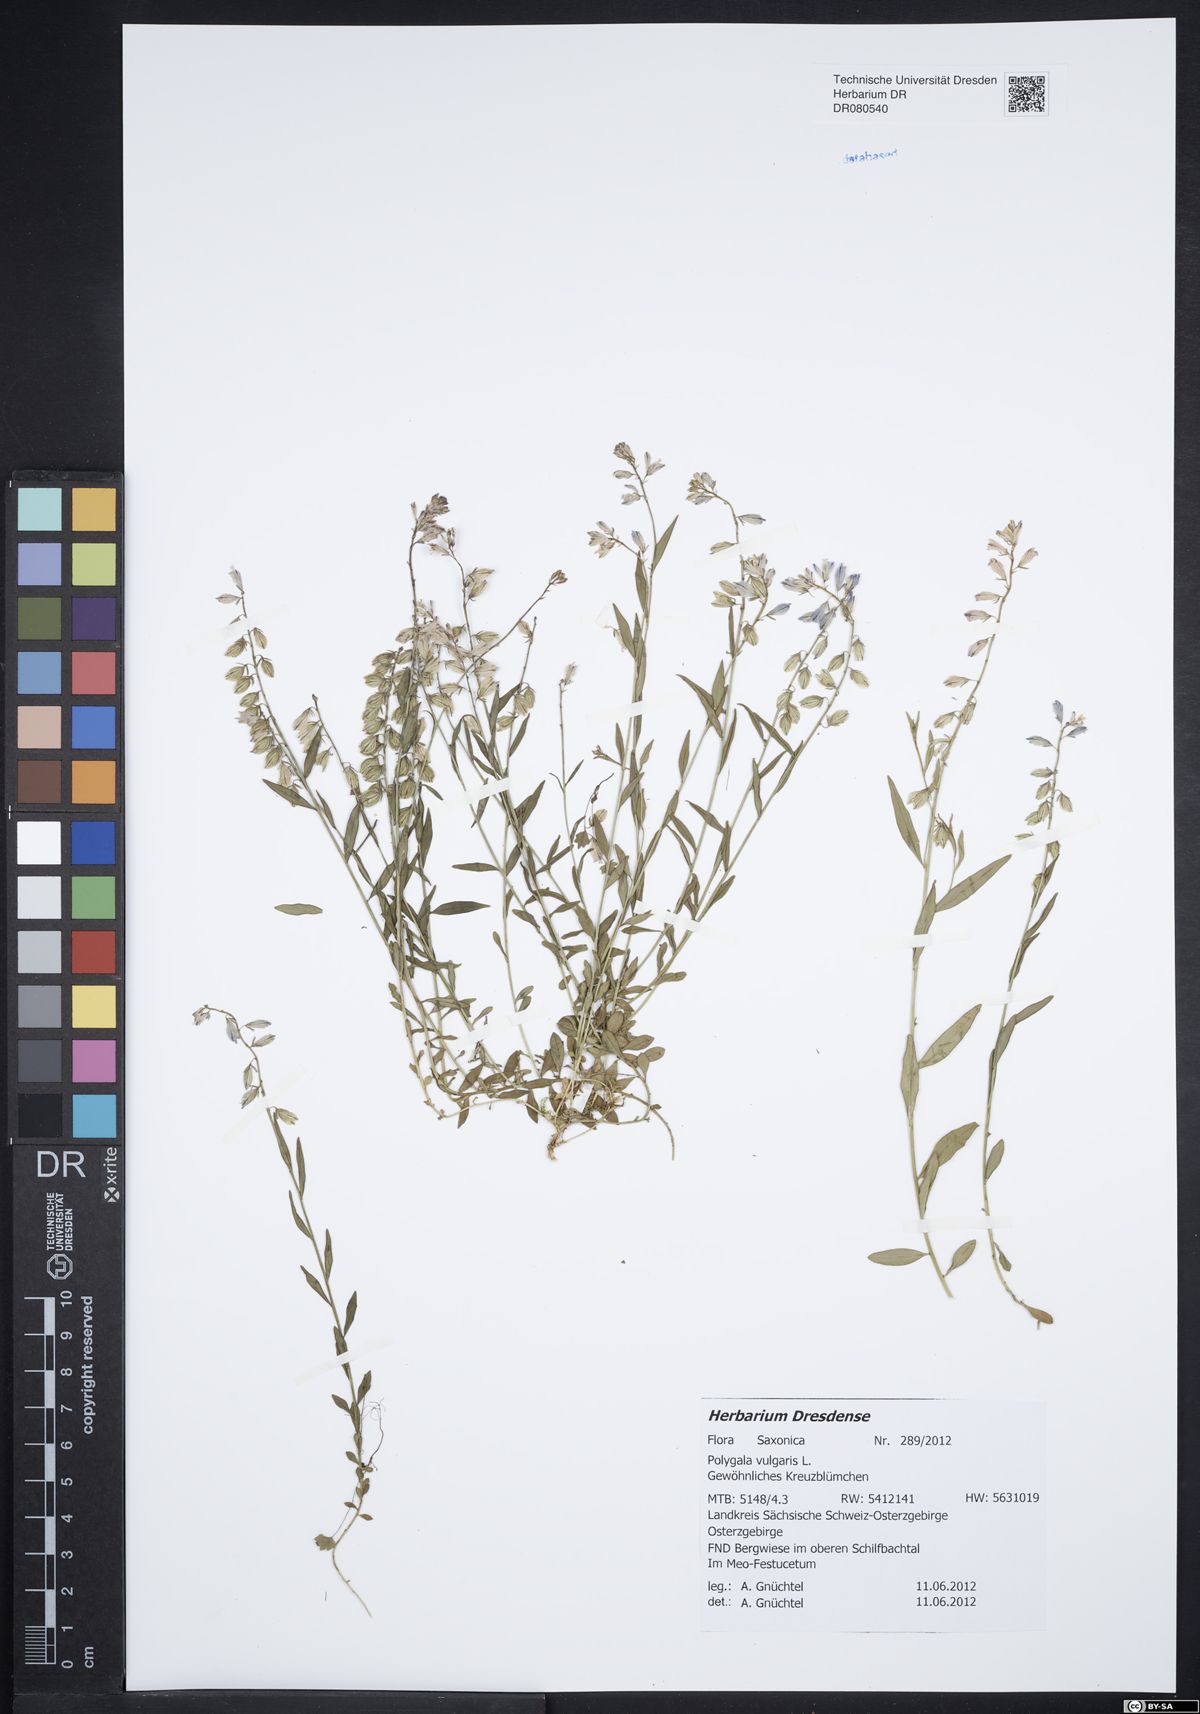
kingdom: Plantae
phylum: Tracheophyta
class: Magnoliopsida
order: Fabales
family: Polygalaceae
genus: Polygala
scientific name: Polygala vulgaris
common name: Common milkwort
